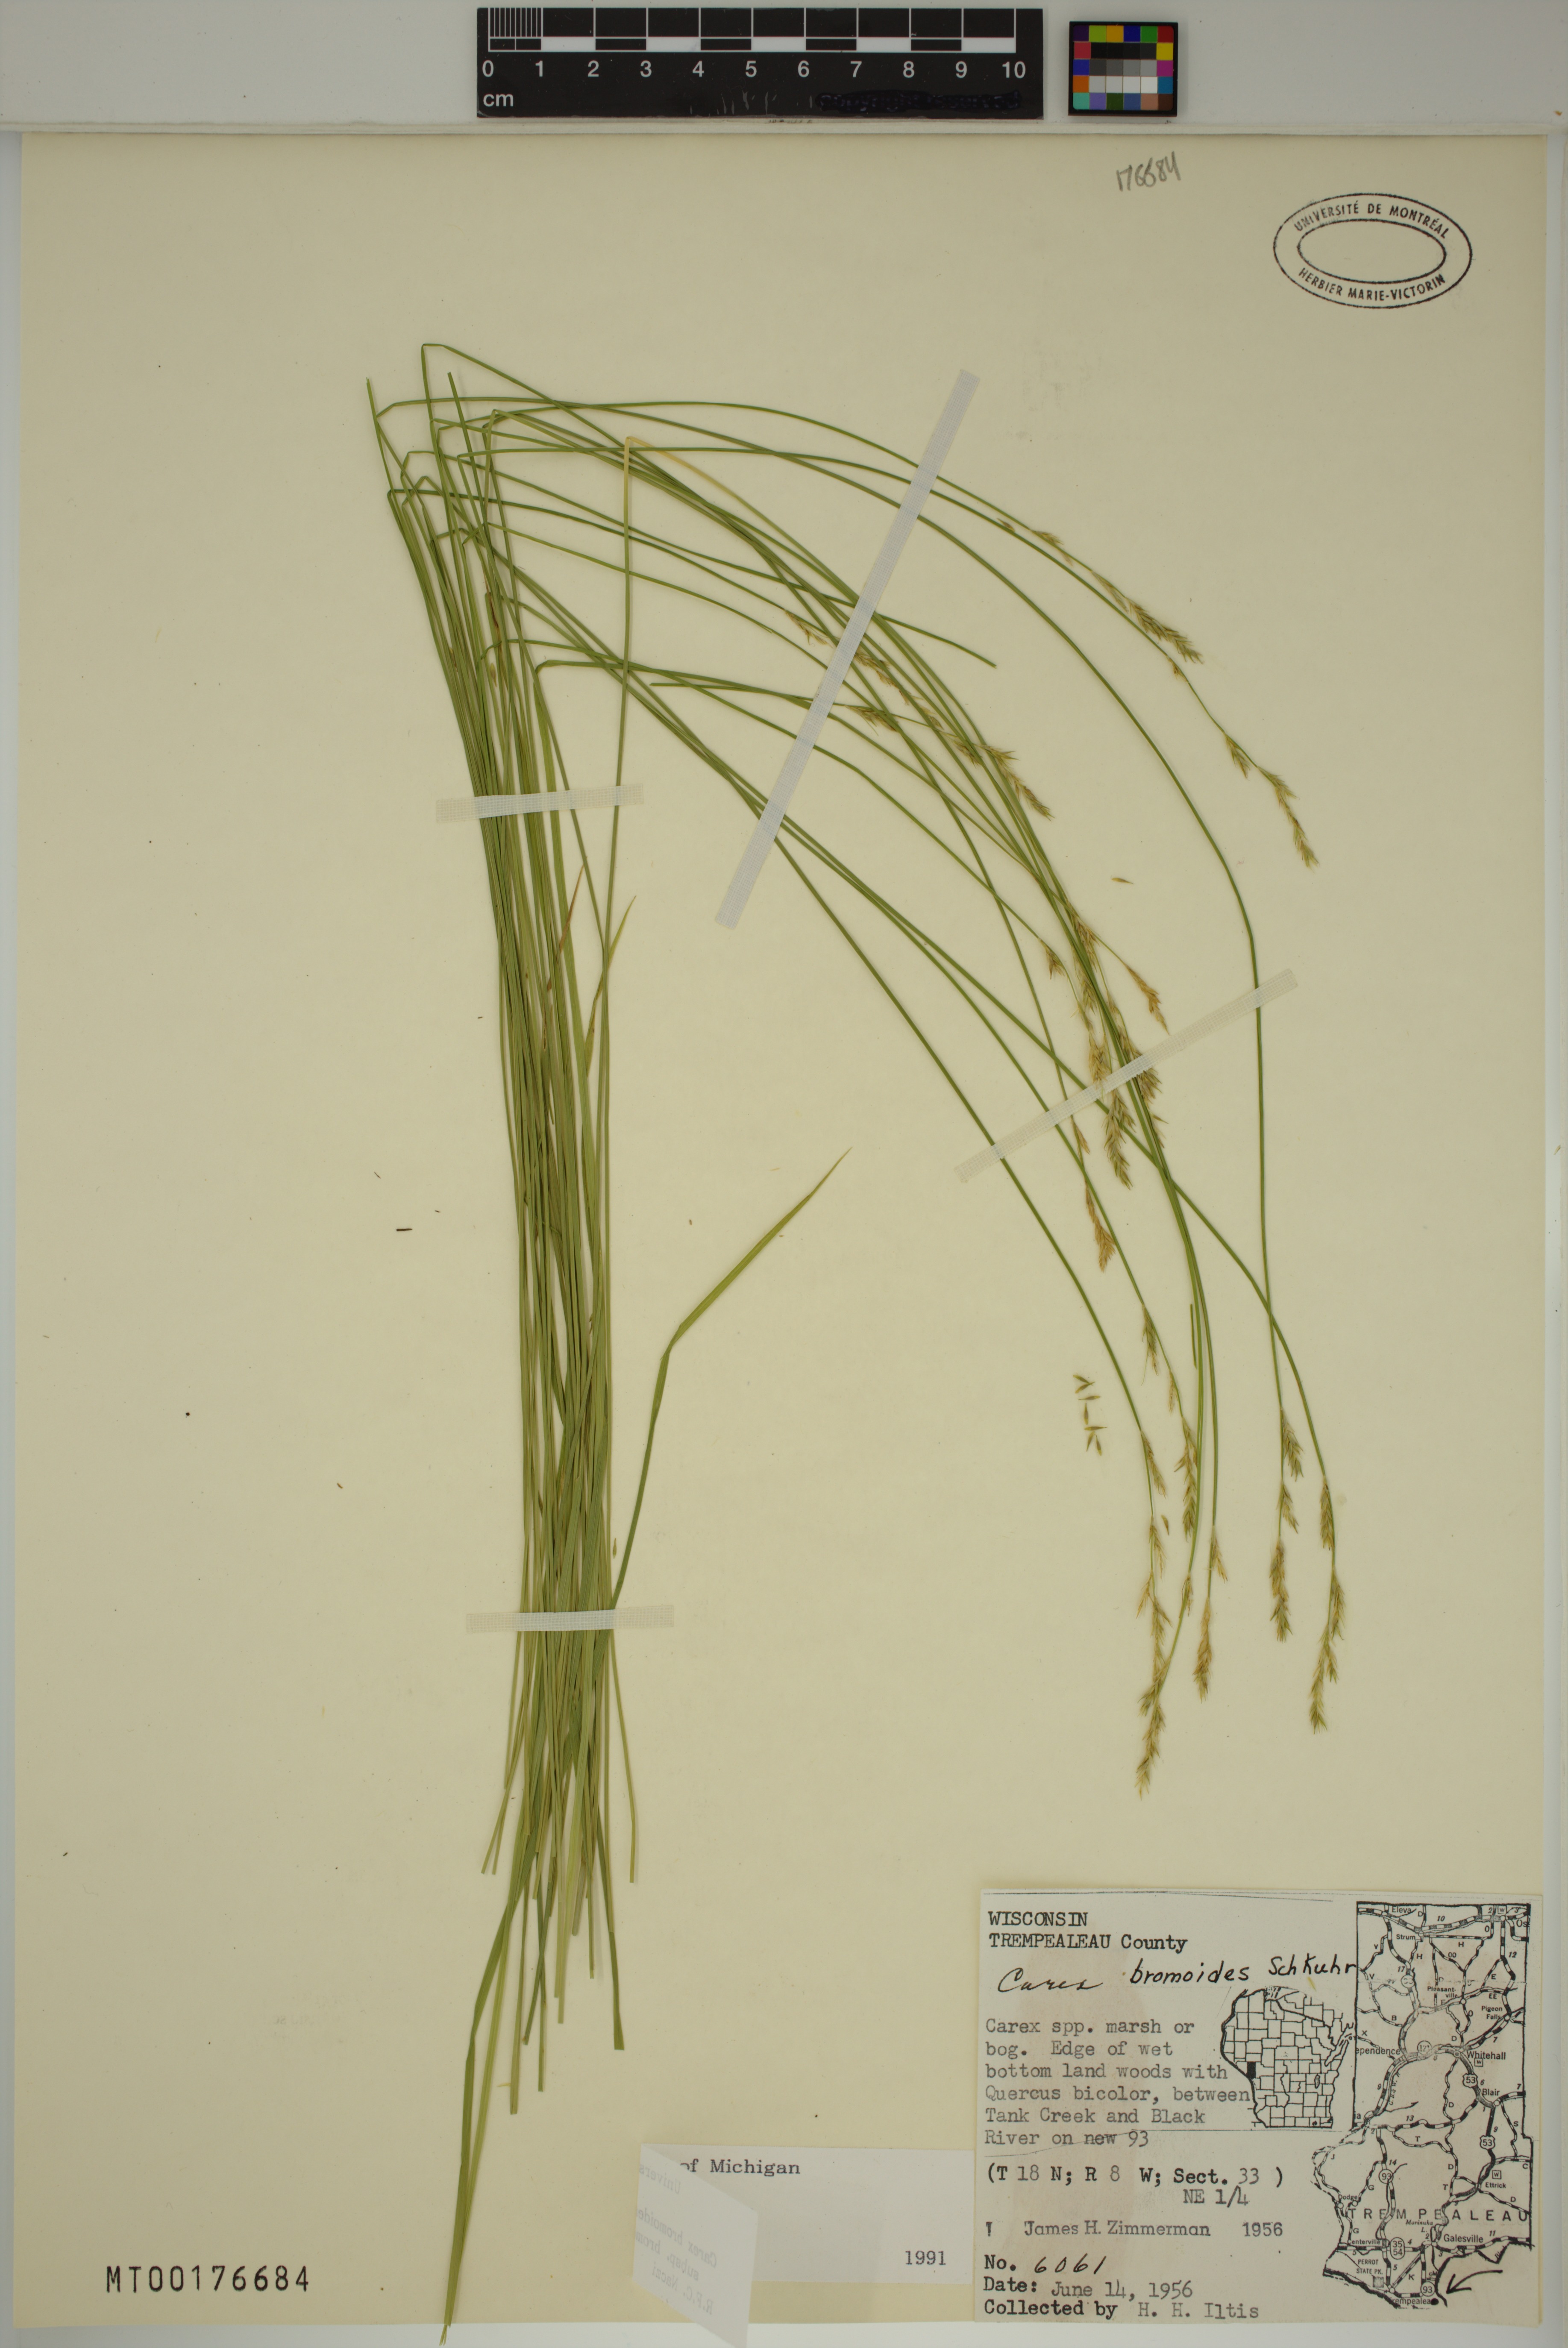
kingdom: Plantae
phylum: Tracheophyta
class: Liliopsida
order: Poales
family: Cyperaceae
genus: Carex
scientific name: Carex bromoides
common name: Brome hummock sedge
